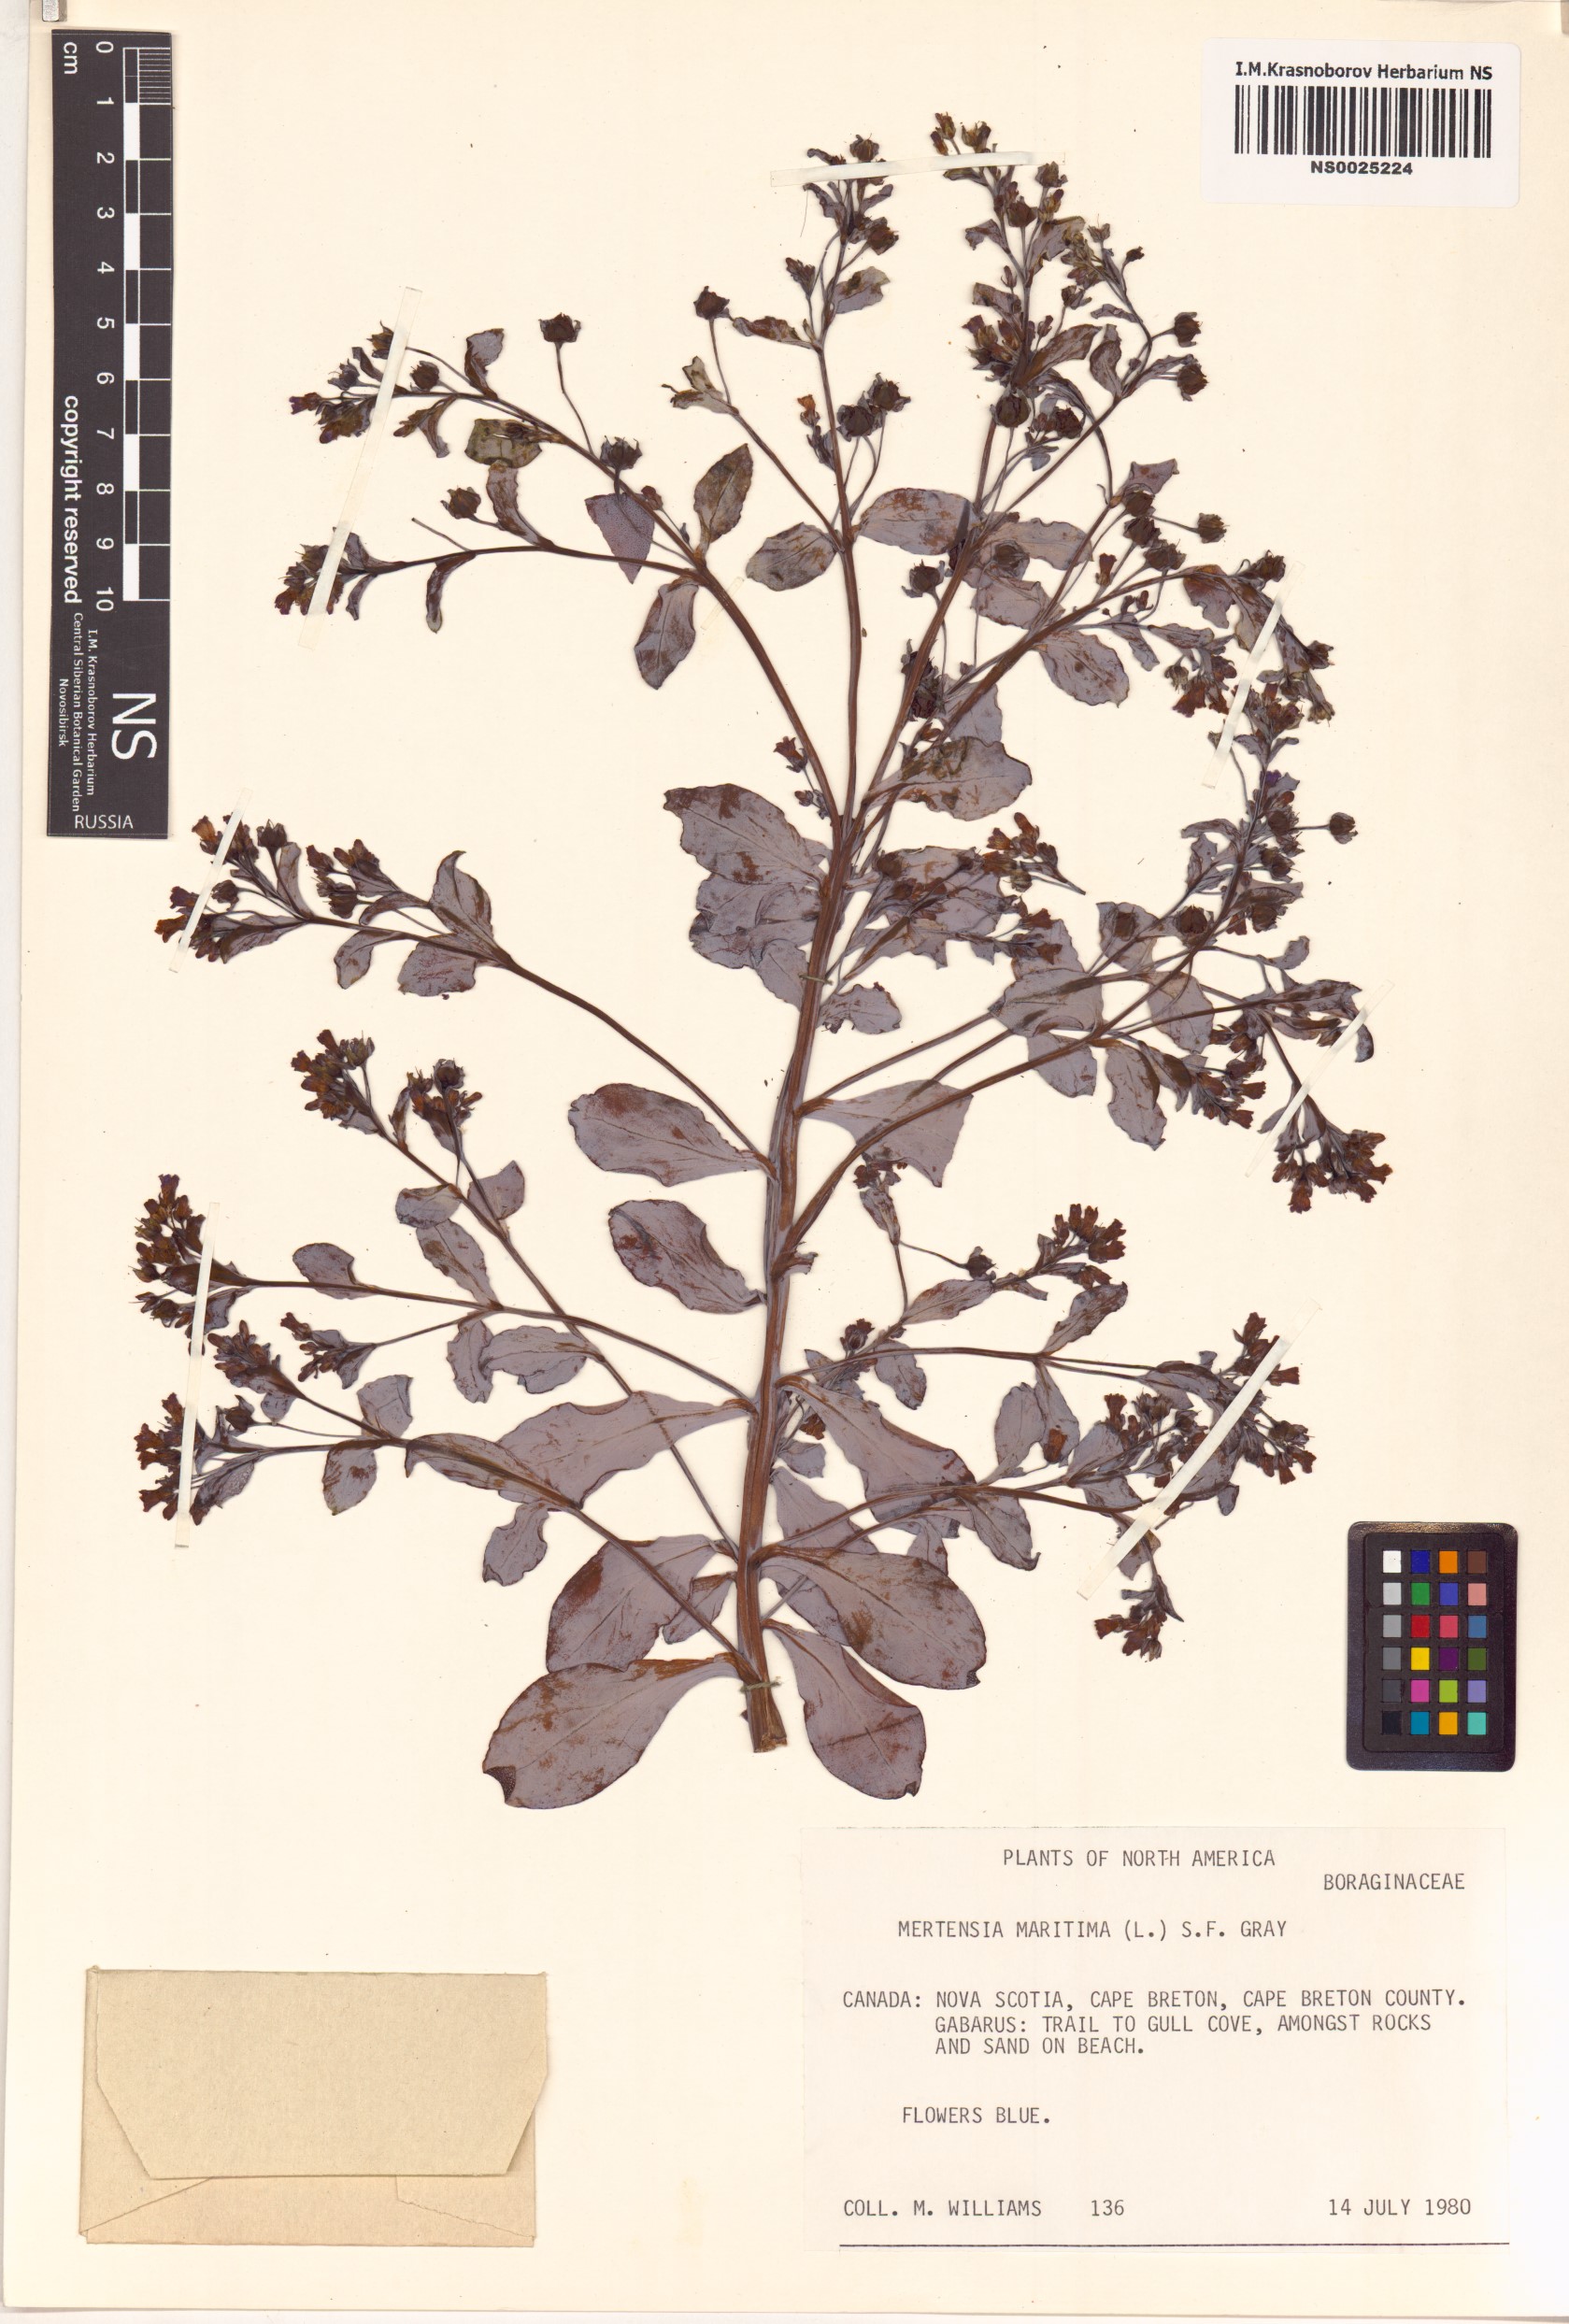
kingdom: Plantae
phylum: Tracheophyta
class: Magnoliopsida
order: Boraginales
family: Boraginaceae
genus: Mertensia
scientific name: Mertensia maritima
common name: Oysterplant
